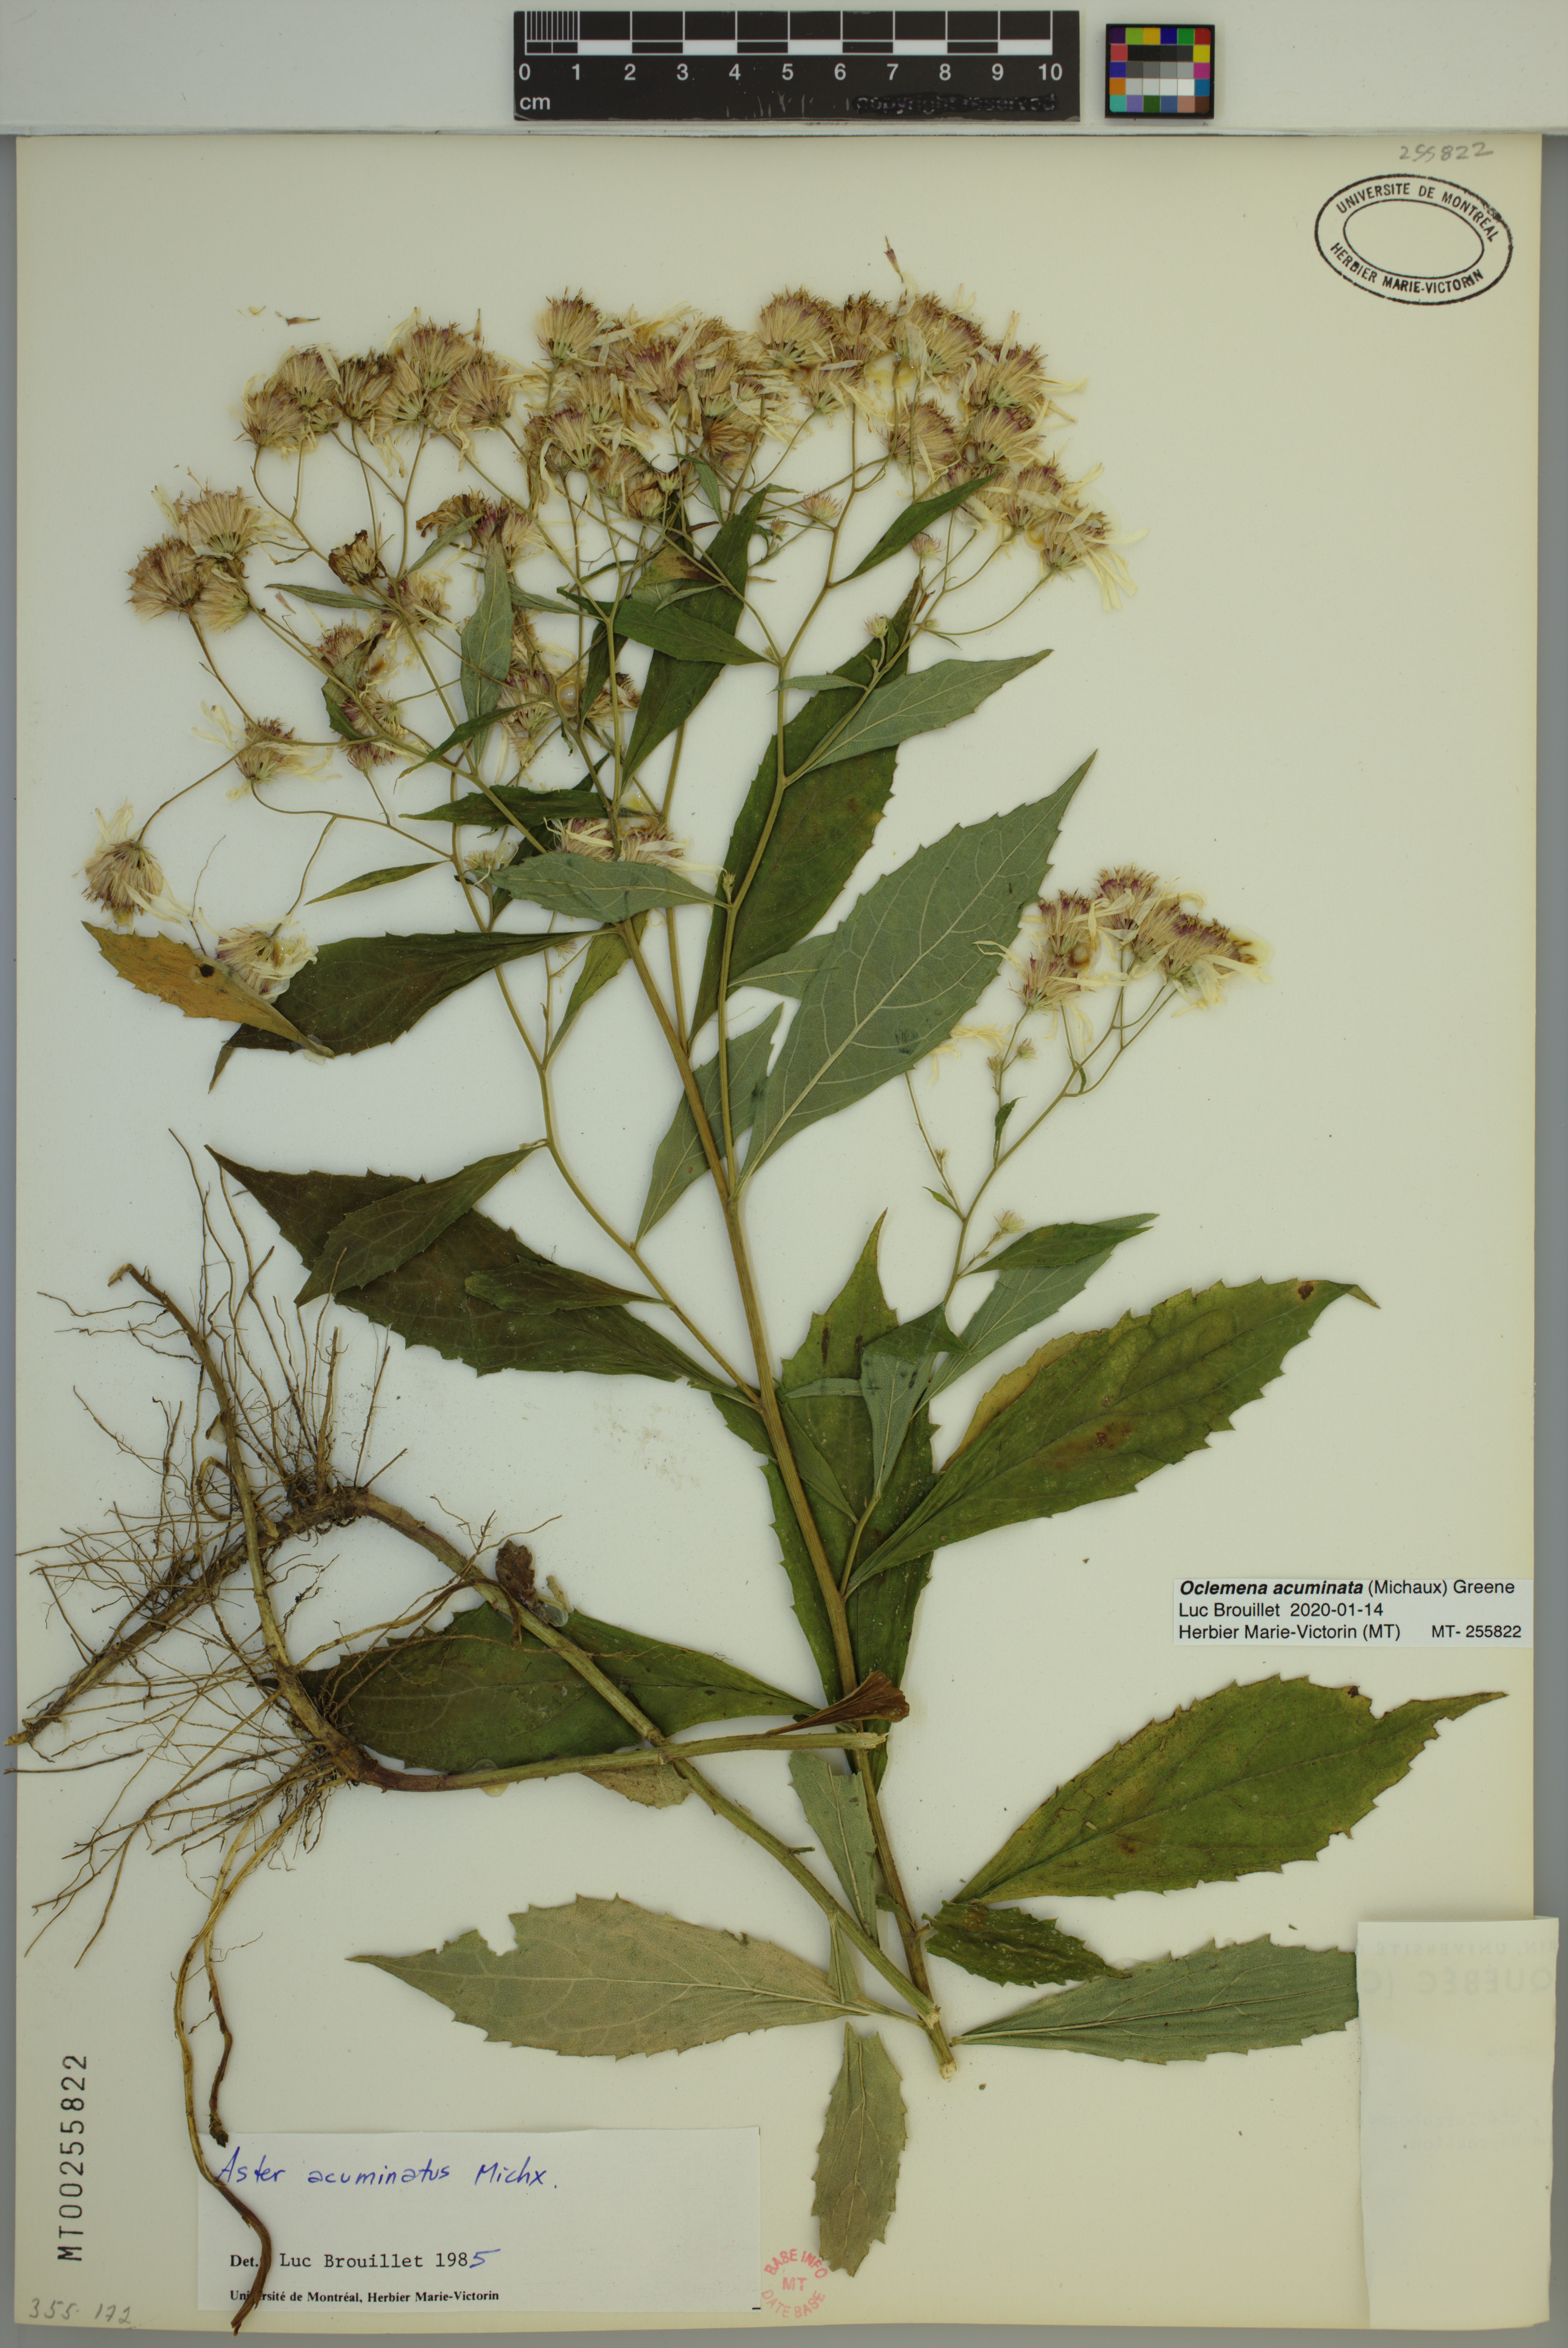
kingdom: Plantae
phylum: Tracheophyta
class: Magnoliopsida
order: Asterales
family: Asteraceae
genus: Oclemena
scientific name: Oclemena acuminata
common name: Mountain aster
